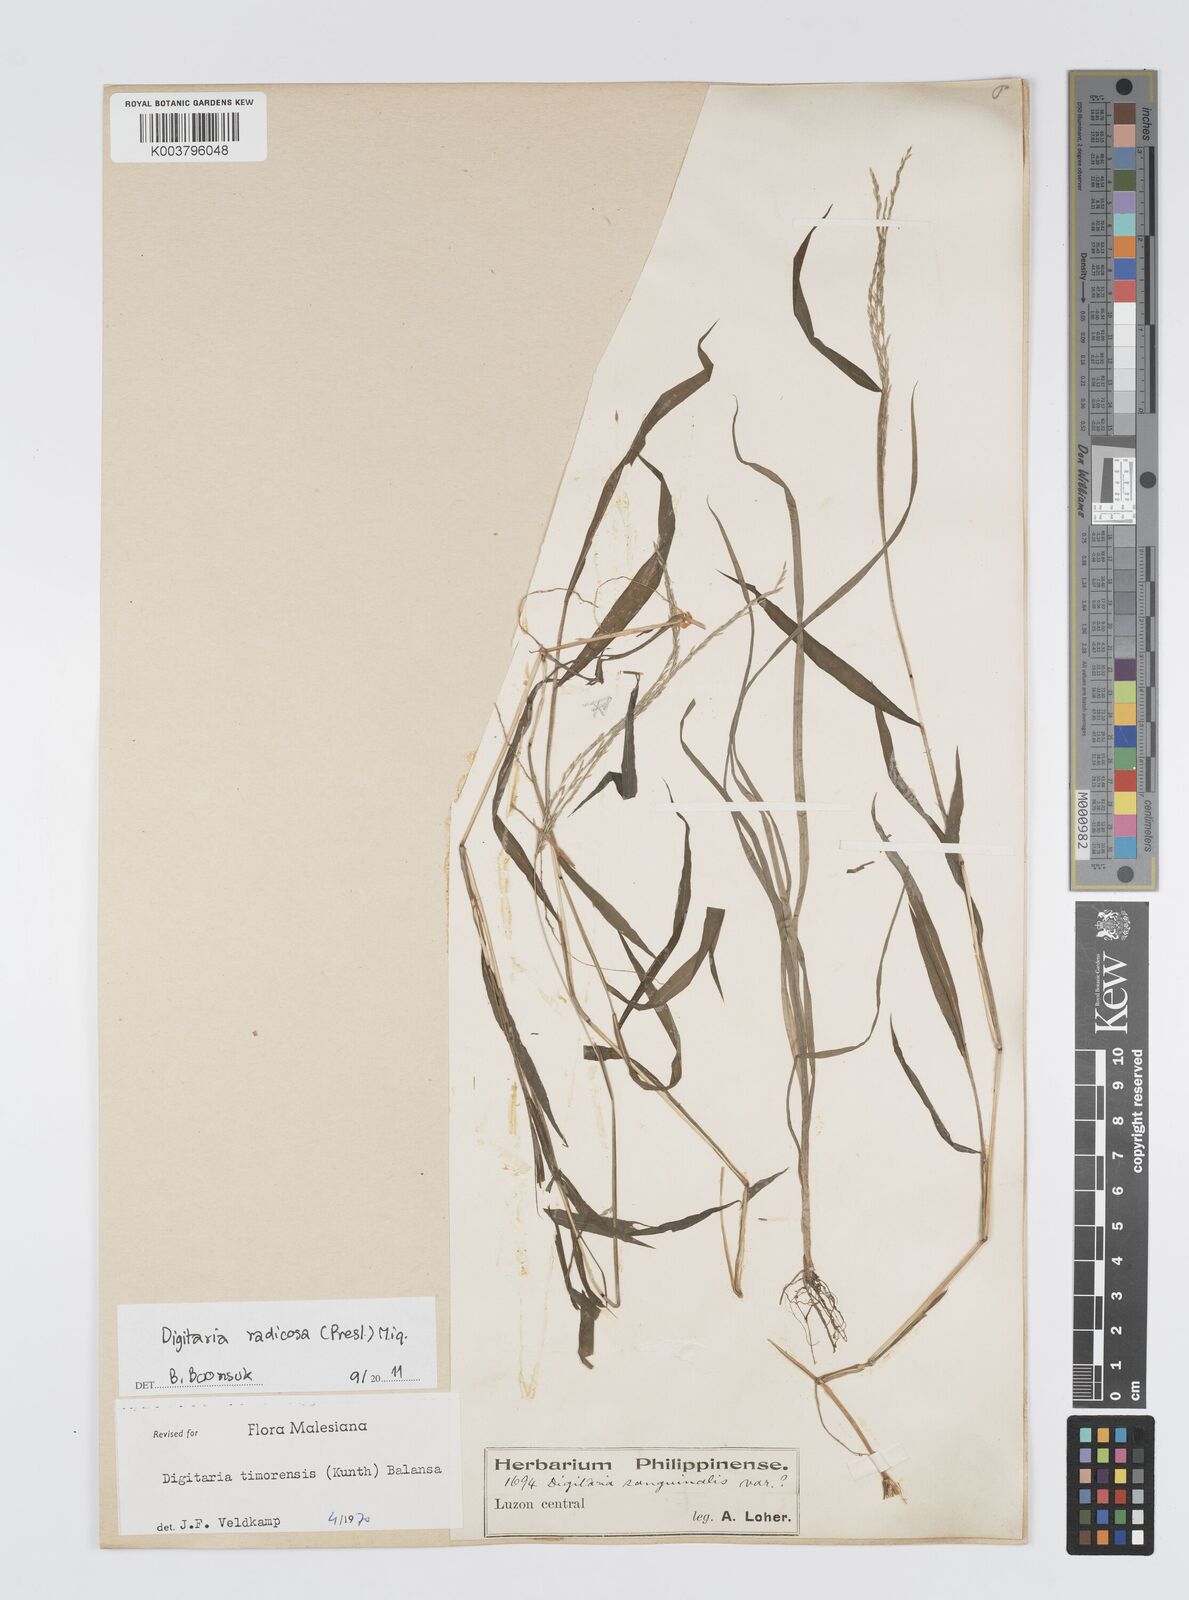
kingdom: Plantae
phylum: Tracheophyta
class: Liliopsida
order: Poales
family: Poaceae
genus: Digitaria
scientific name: Digitaria radicosa
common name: Trailing crabgrass
